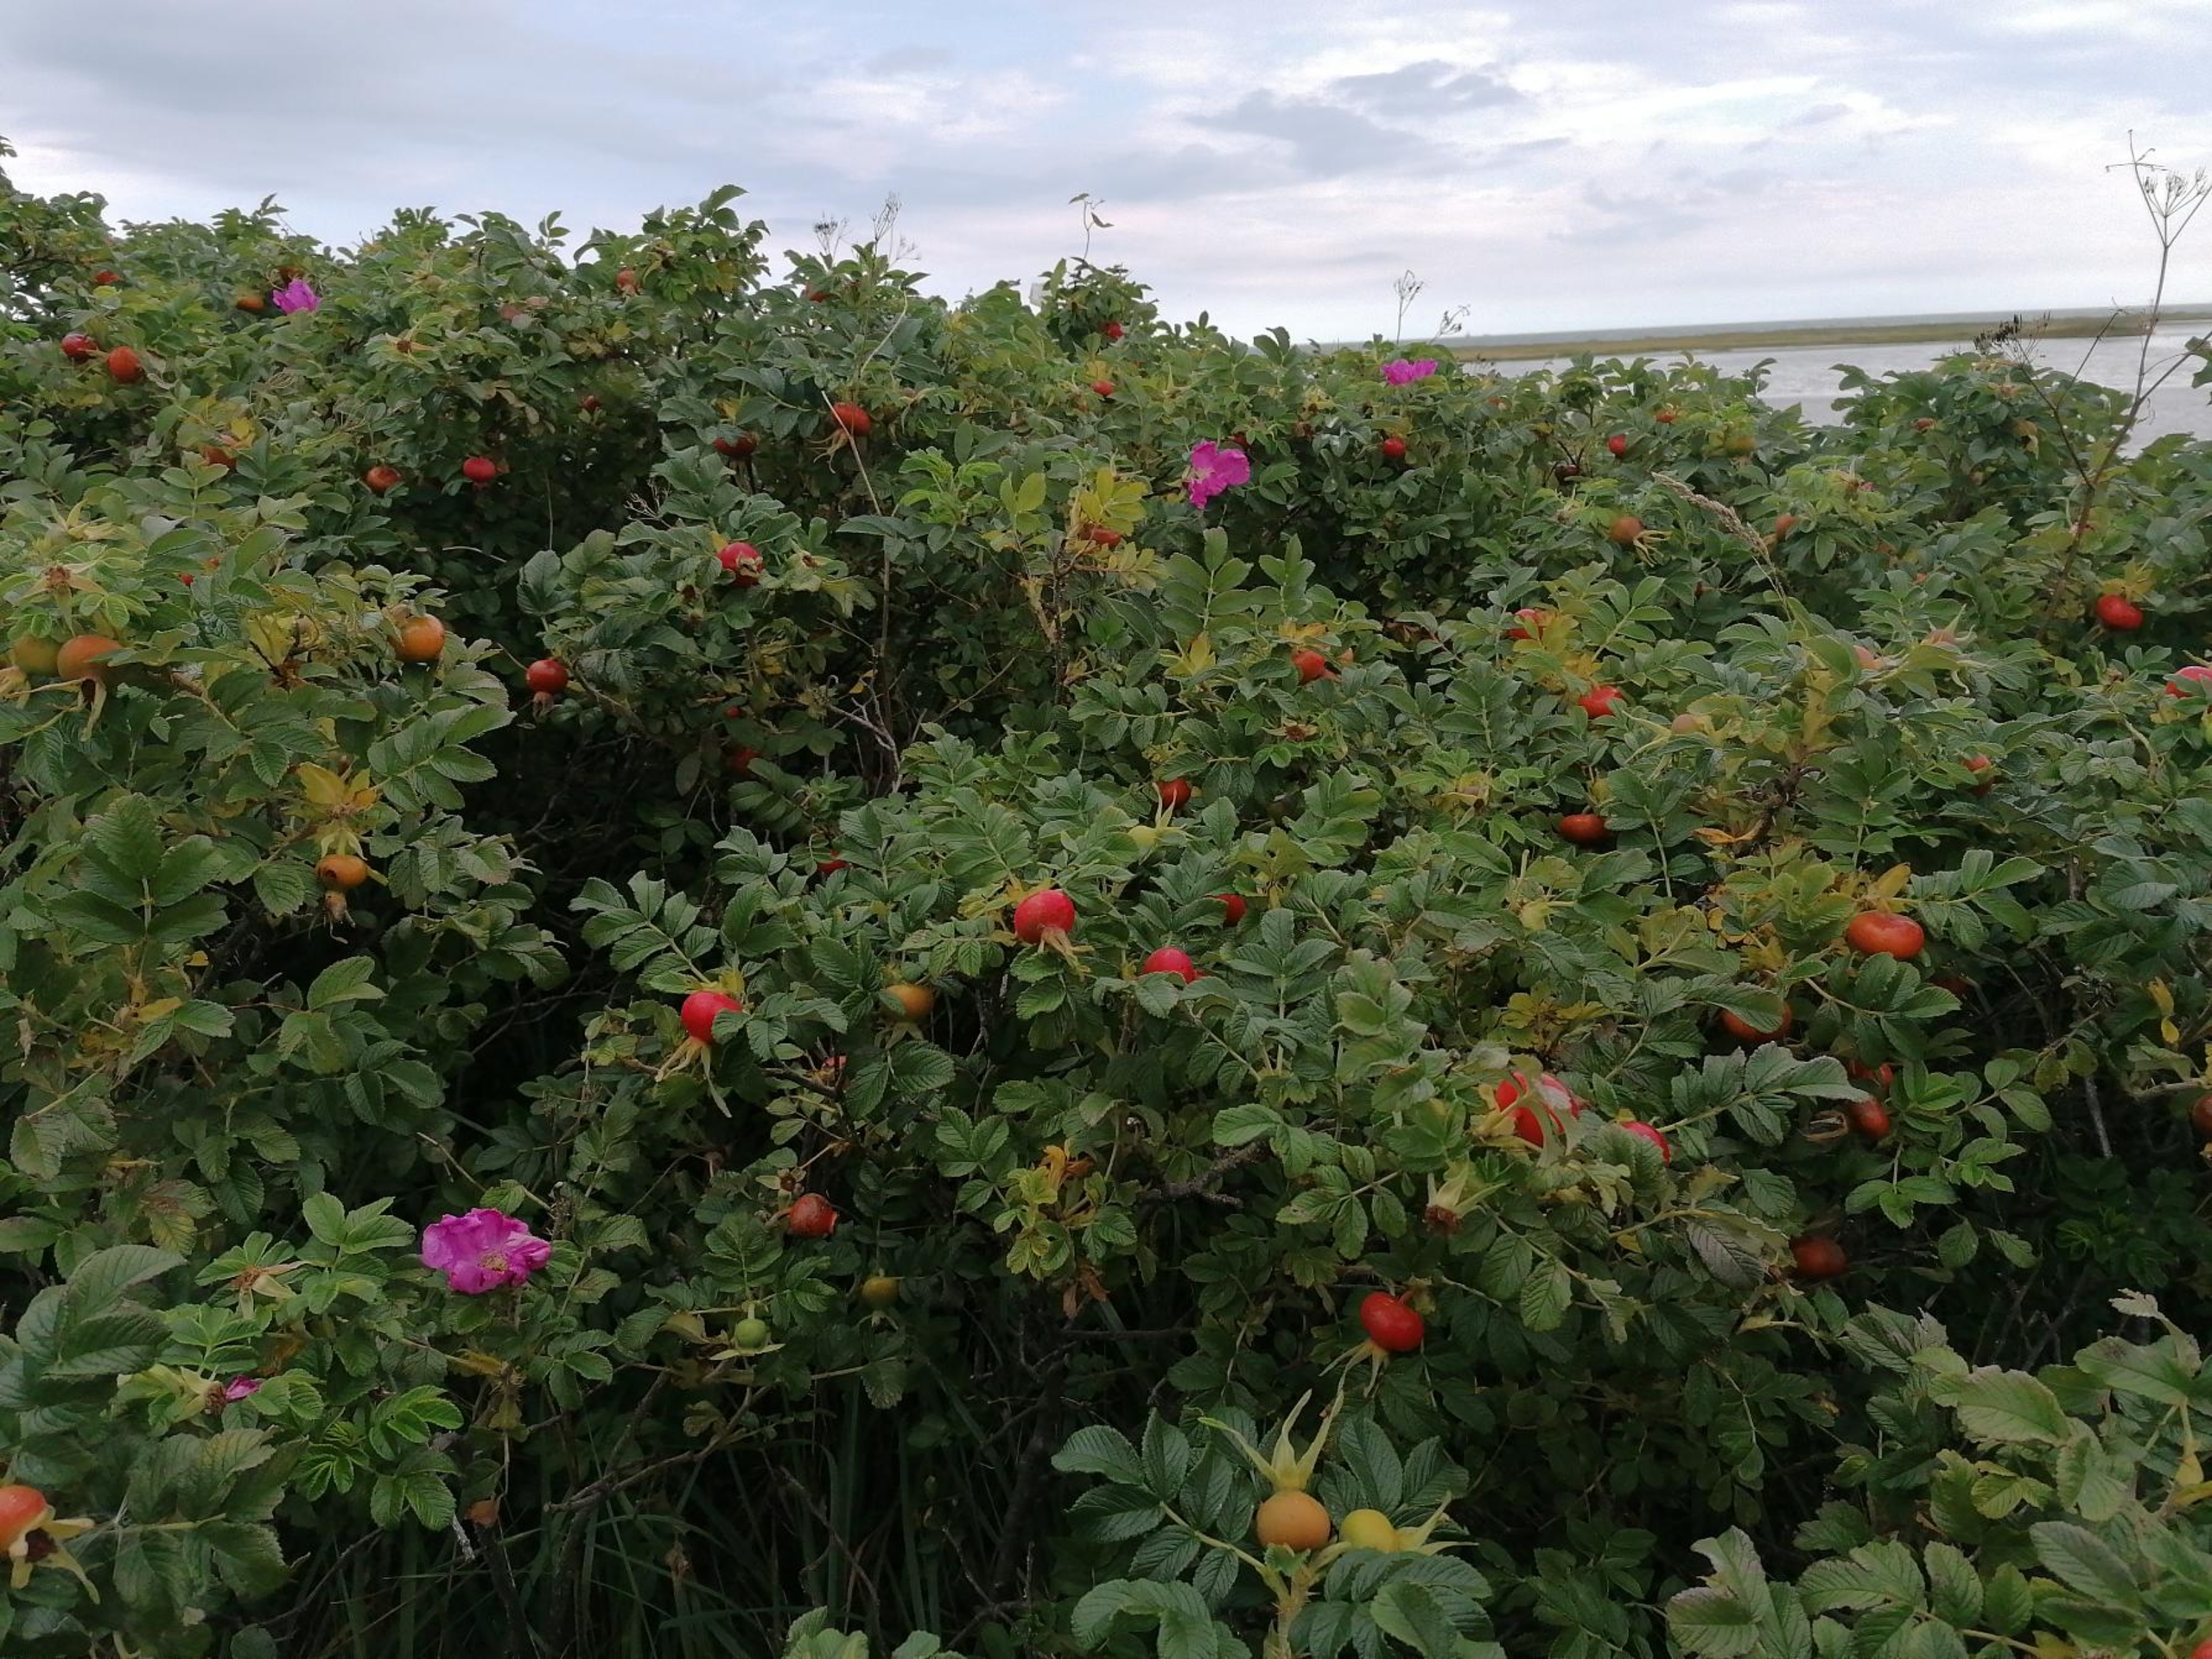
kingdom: Plantae
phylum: Tracheophyta
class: Magnoliopsida
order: Rosales
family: Rosaceae
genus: Rosa
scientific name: Rosa rugosa
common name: Rynket rose
